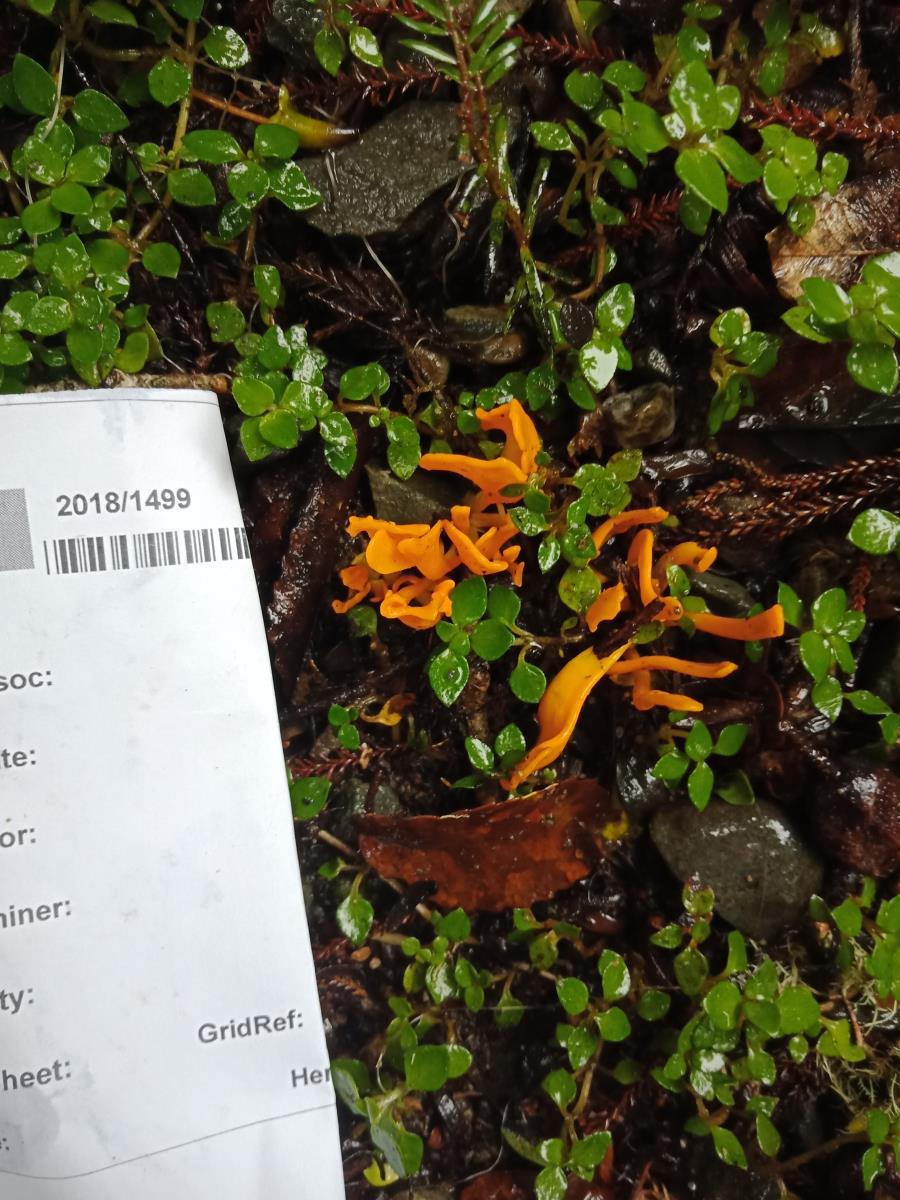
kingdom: Fungi
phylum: Basidiomycota
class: Agaricomycetes
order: Agaricales
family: Clavariaceae
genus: Clavulinopsis
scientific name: Clavulinopsis archeri
